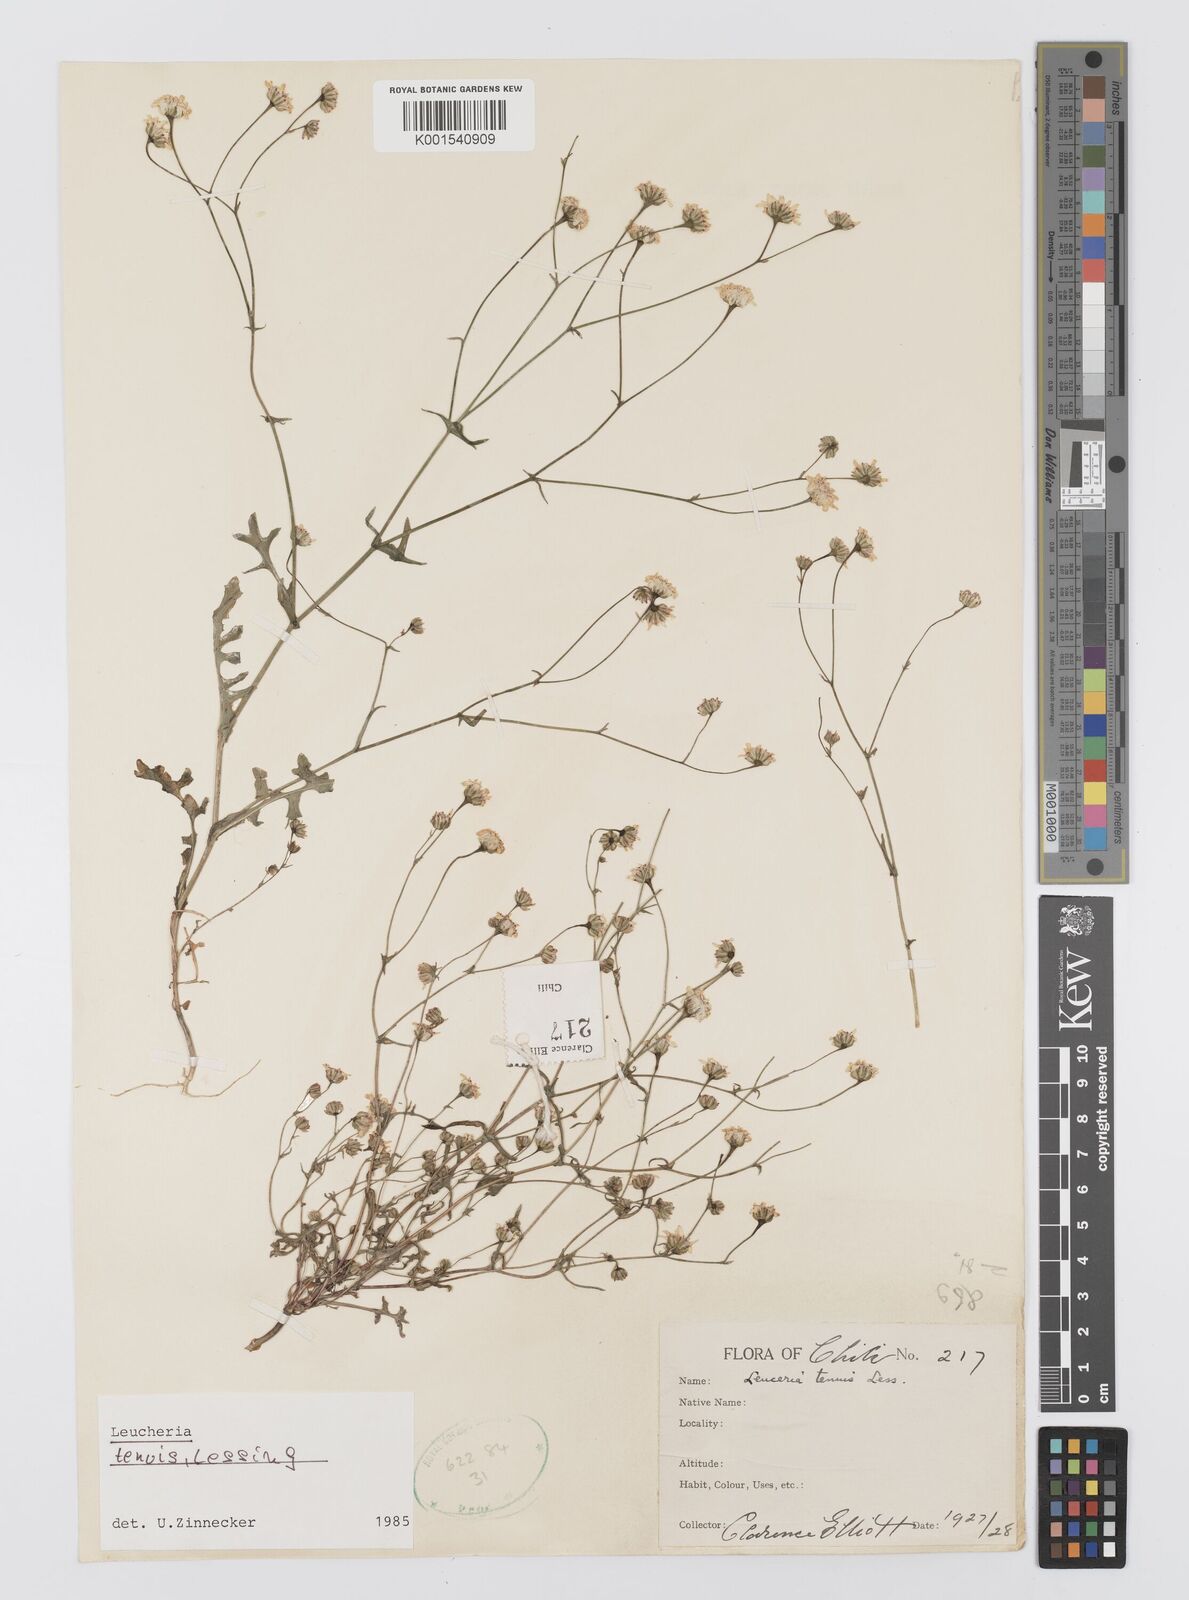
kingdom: Plantae
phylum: Tracheophyta
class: Magnoliopsida
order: Asterales
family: Asteraceae
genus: Leucheria
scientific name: Leucheria tenuis
